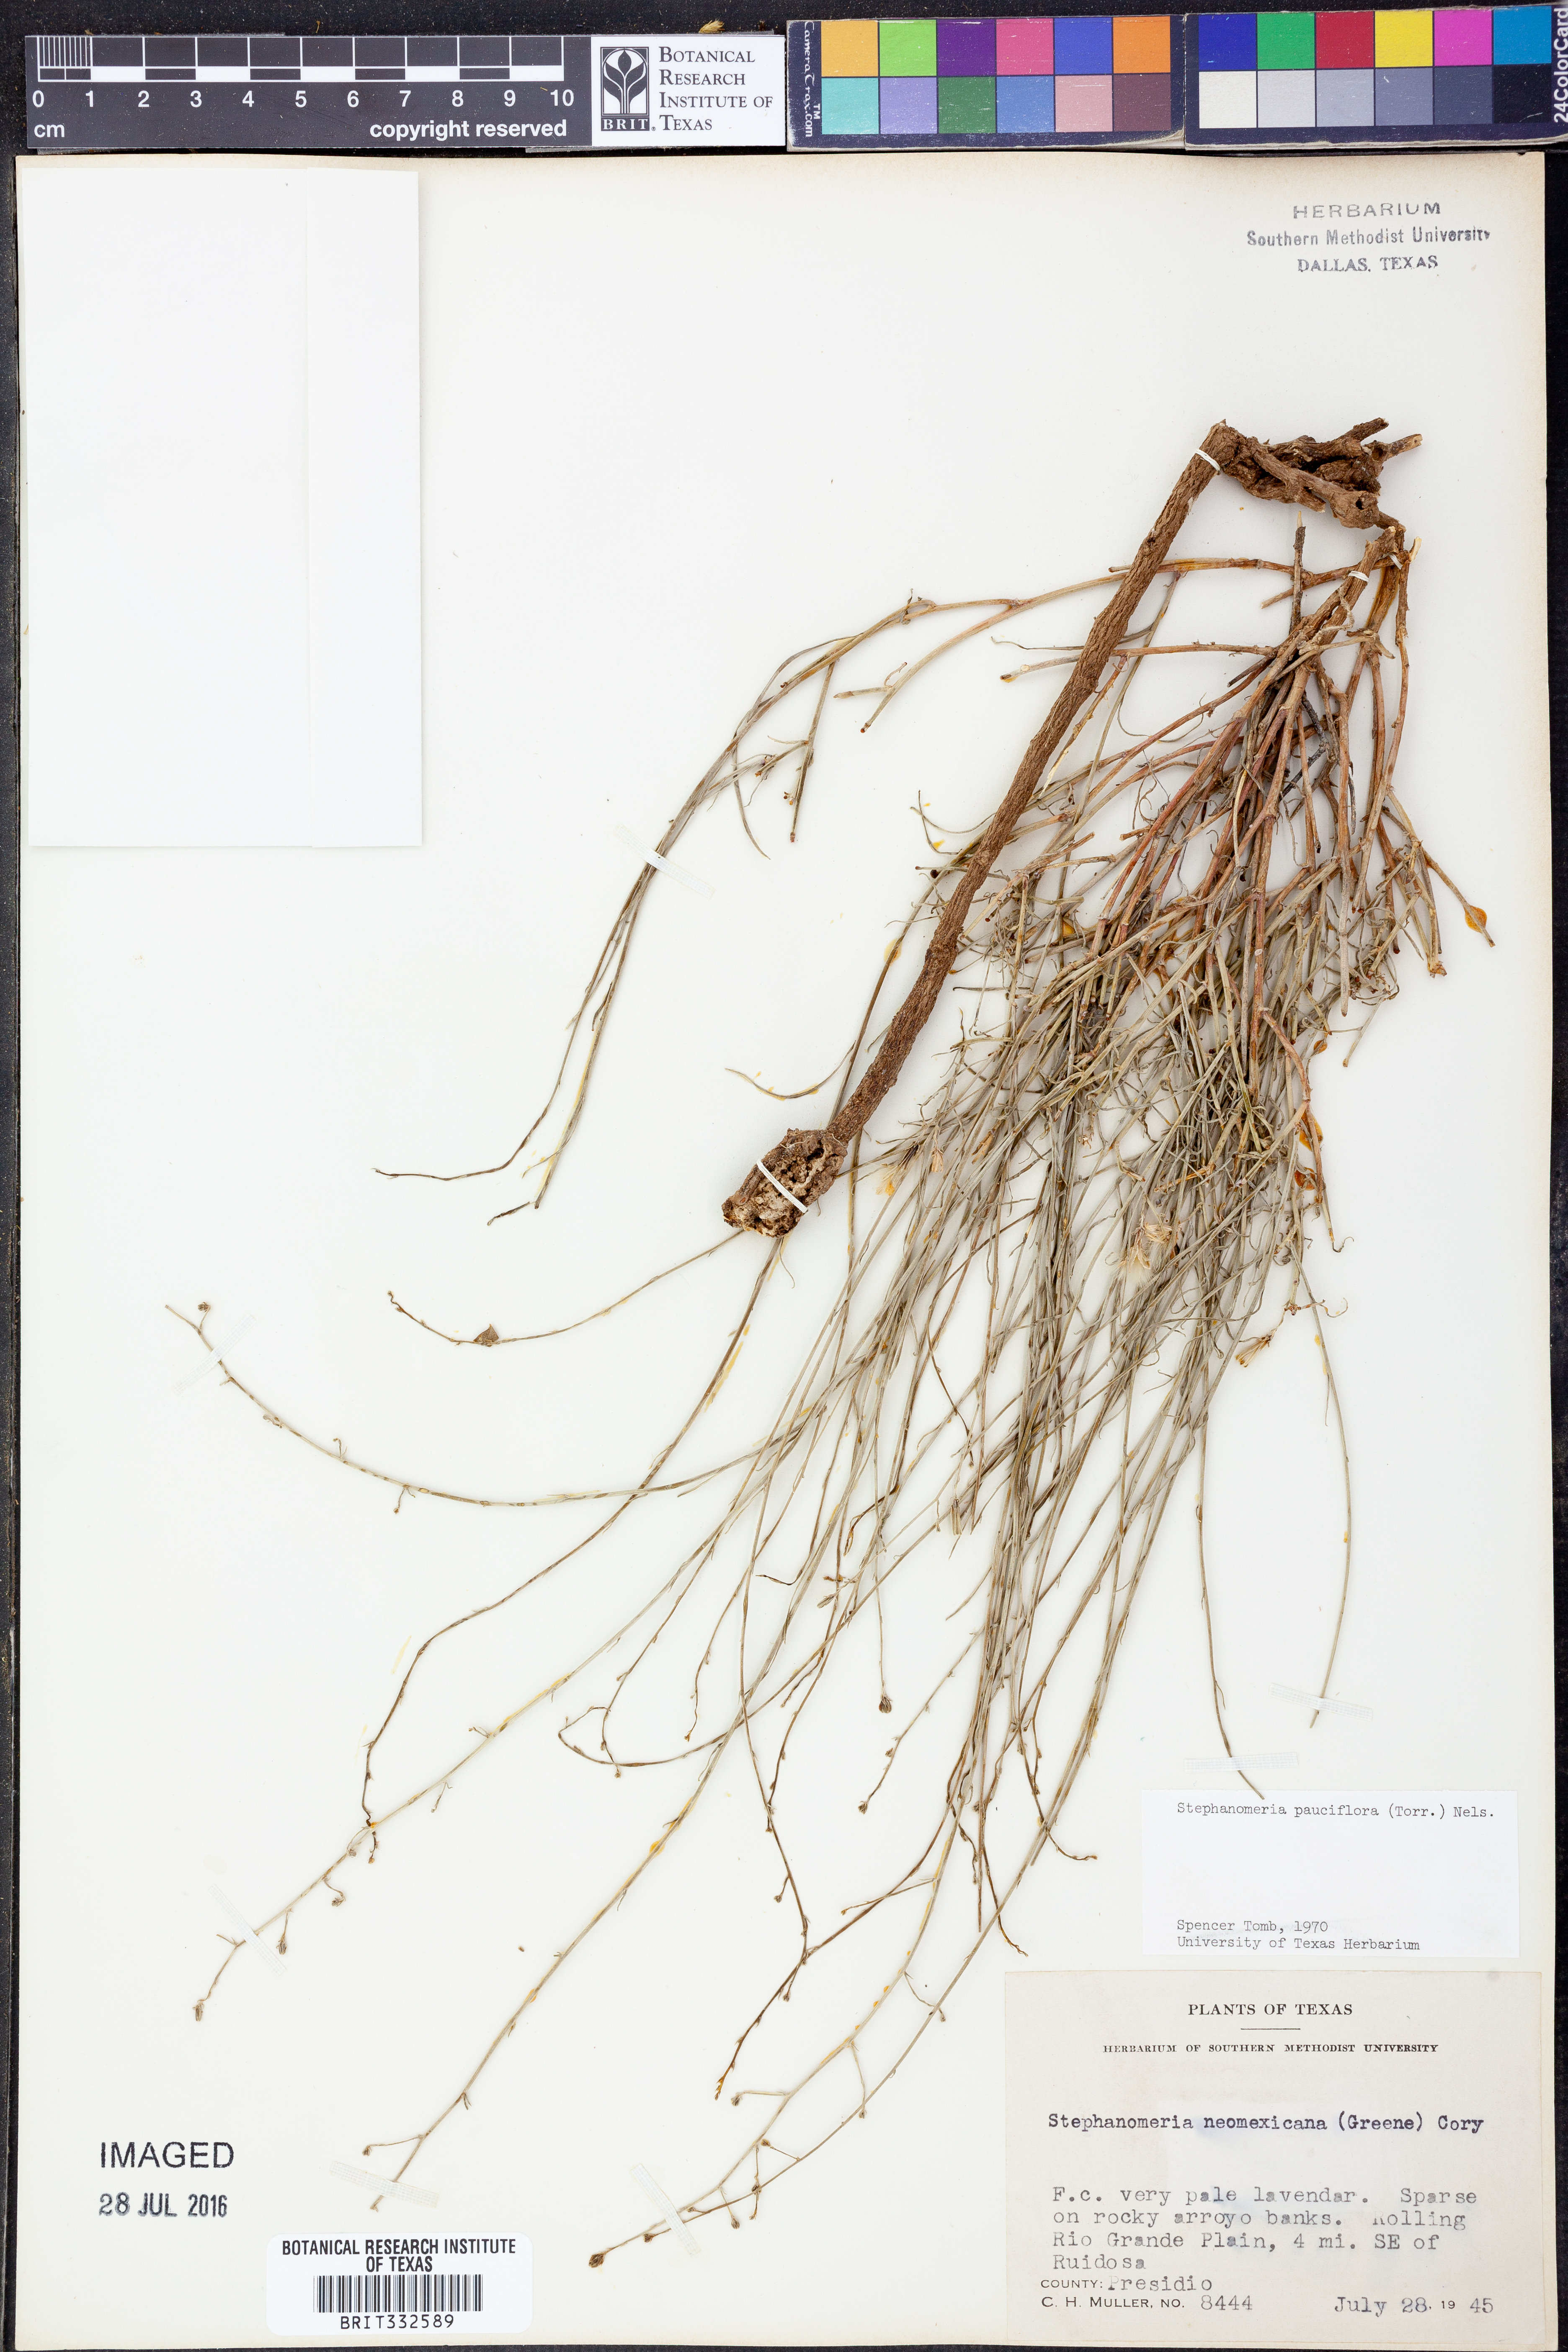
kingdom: Plantae
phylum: Tracheophyta
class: Magnoliopsida
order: Asterales
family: Asteraceae
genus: Stephanomeria
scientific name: Stephanomeria pauciflora
